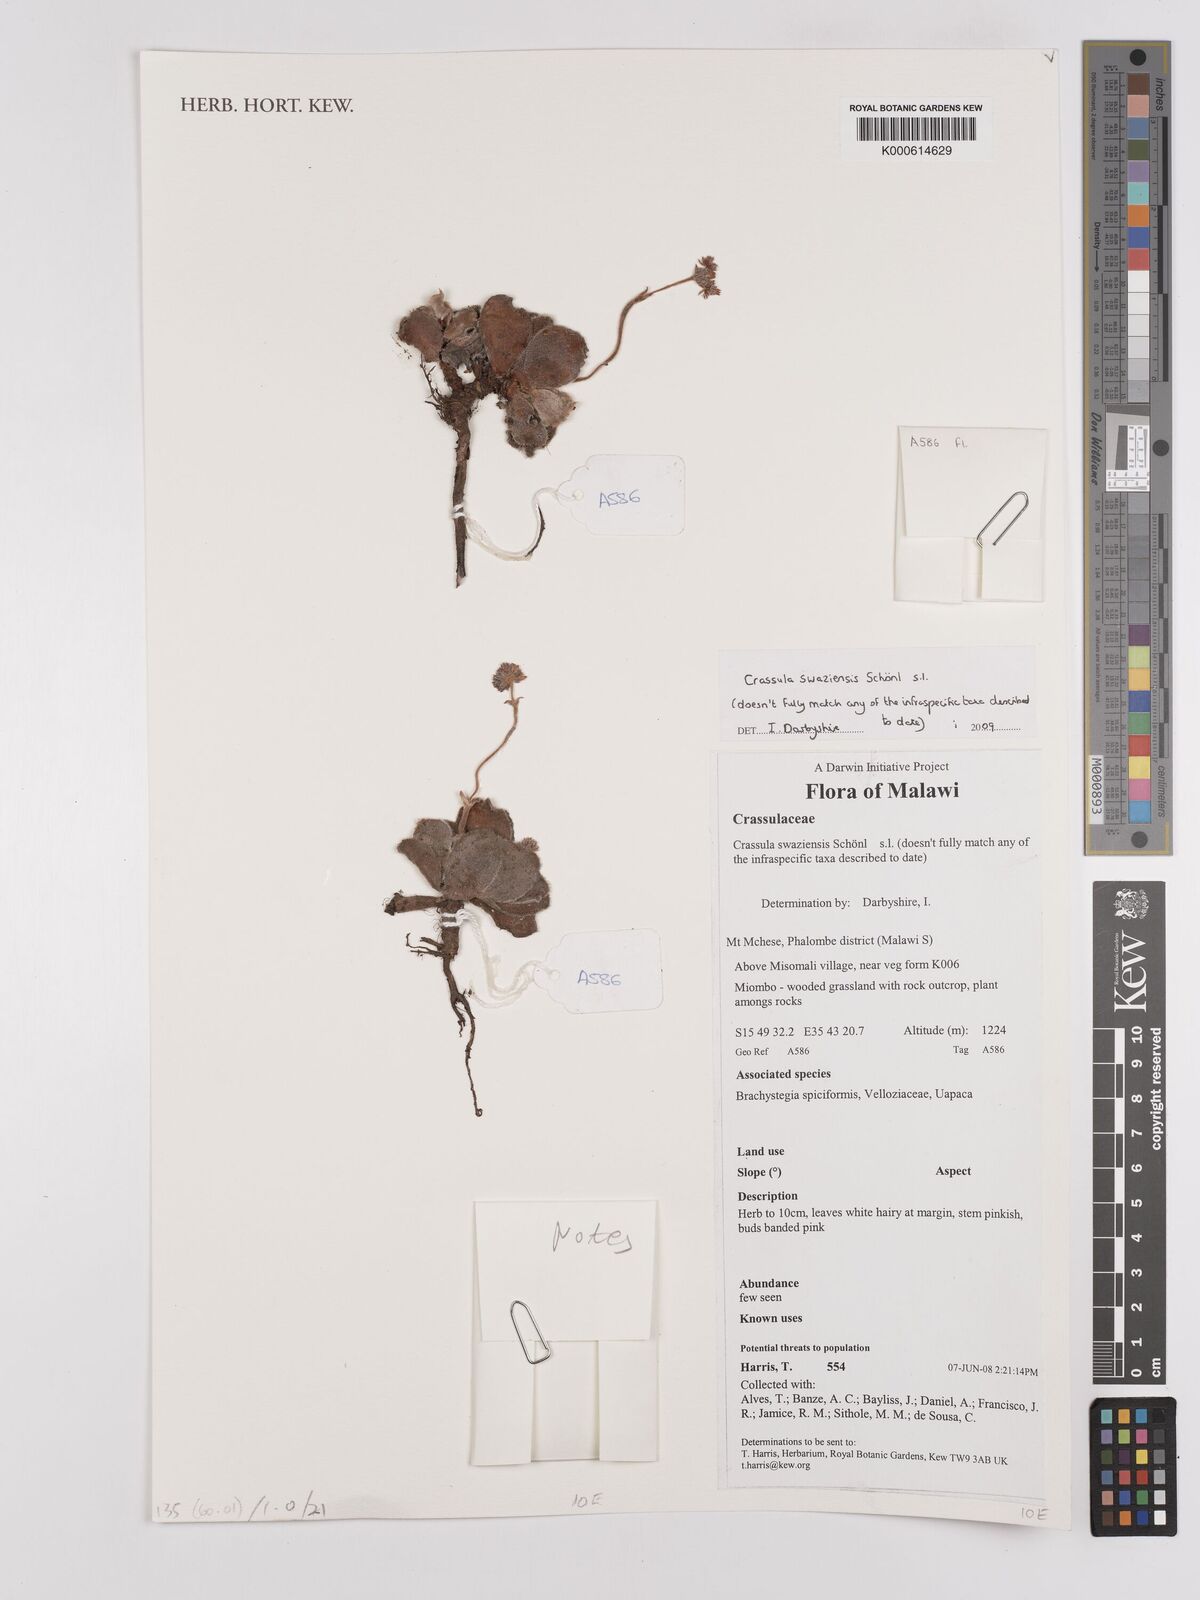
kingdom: Plantae
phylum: Tracheophyta
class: Magnoliopsida
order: Saxifragales
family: Crassulaceae
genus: Crassula
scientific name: Crassula
